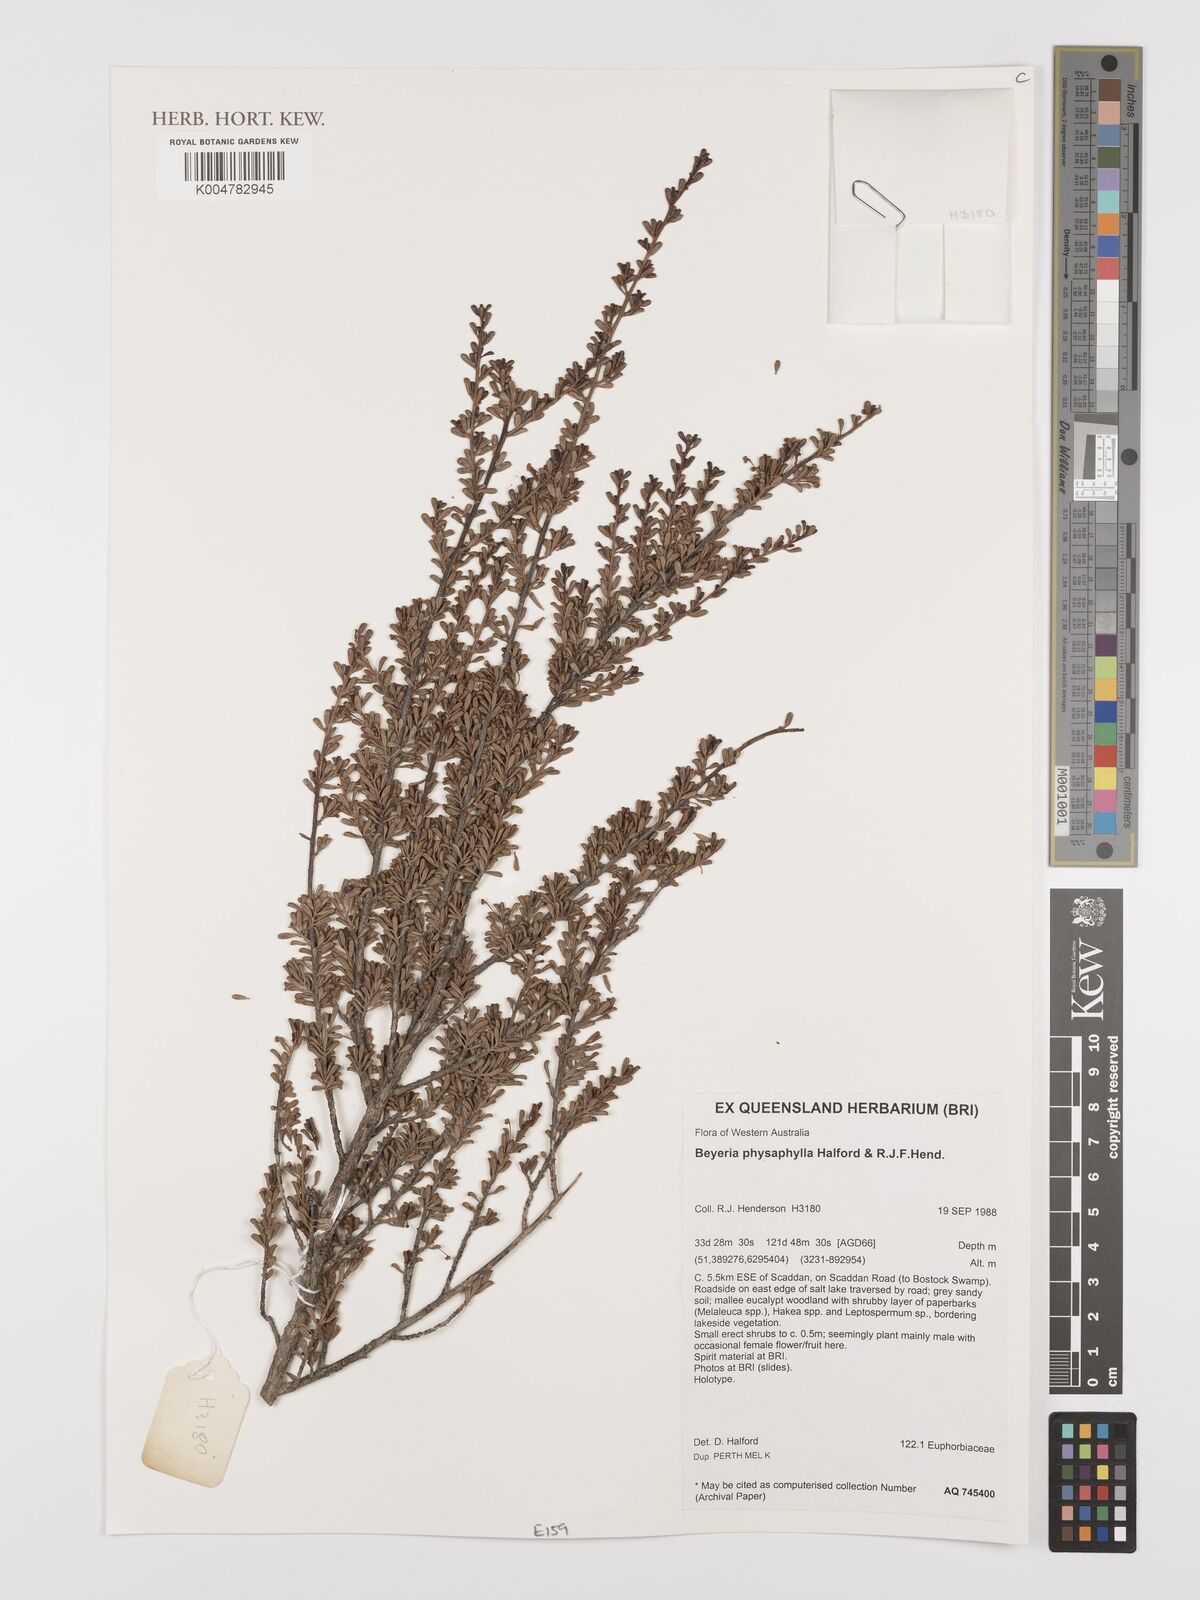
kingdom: Plantae
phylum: Tracheophyta
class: Magnoliopsida
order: Malpighiales
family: Euphorbiaceae
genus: Beyeria
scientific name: Beyeria physaphylla
